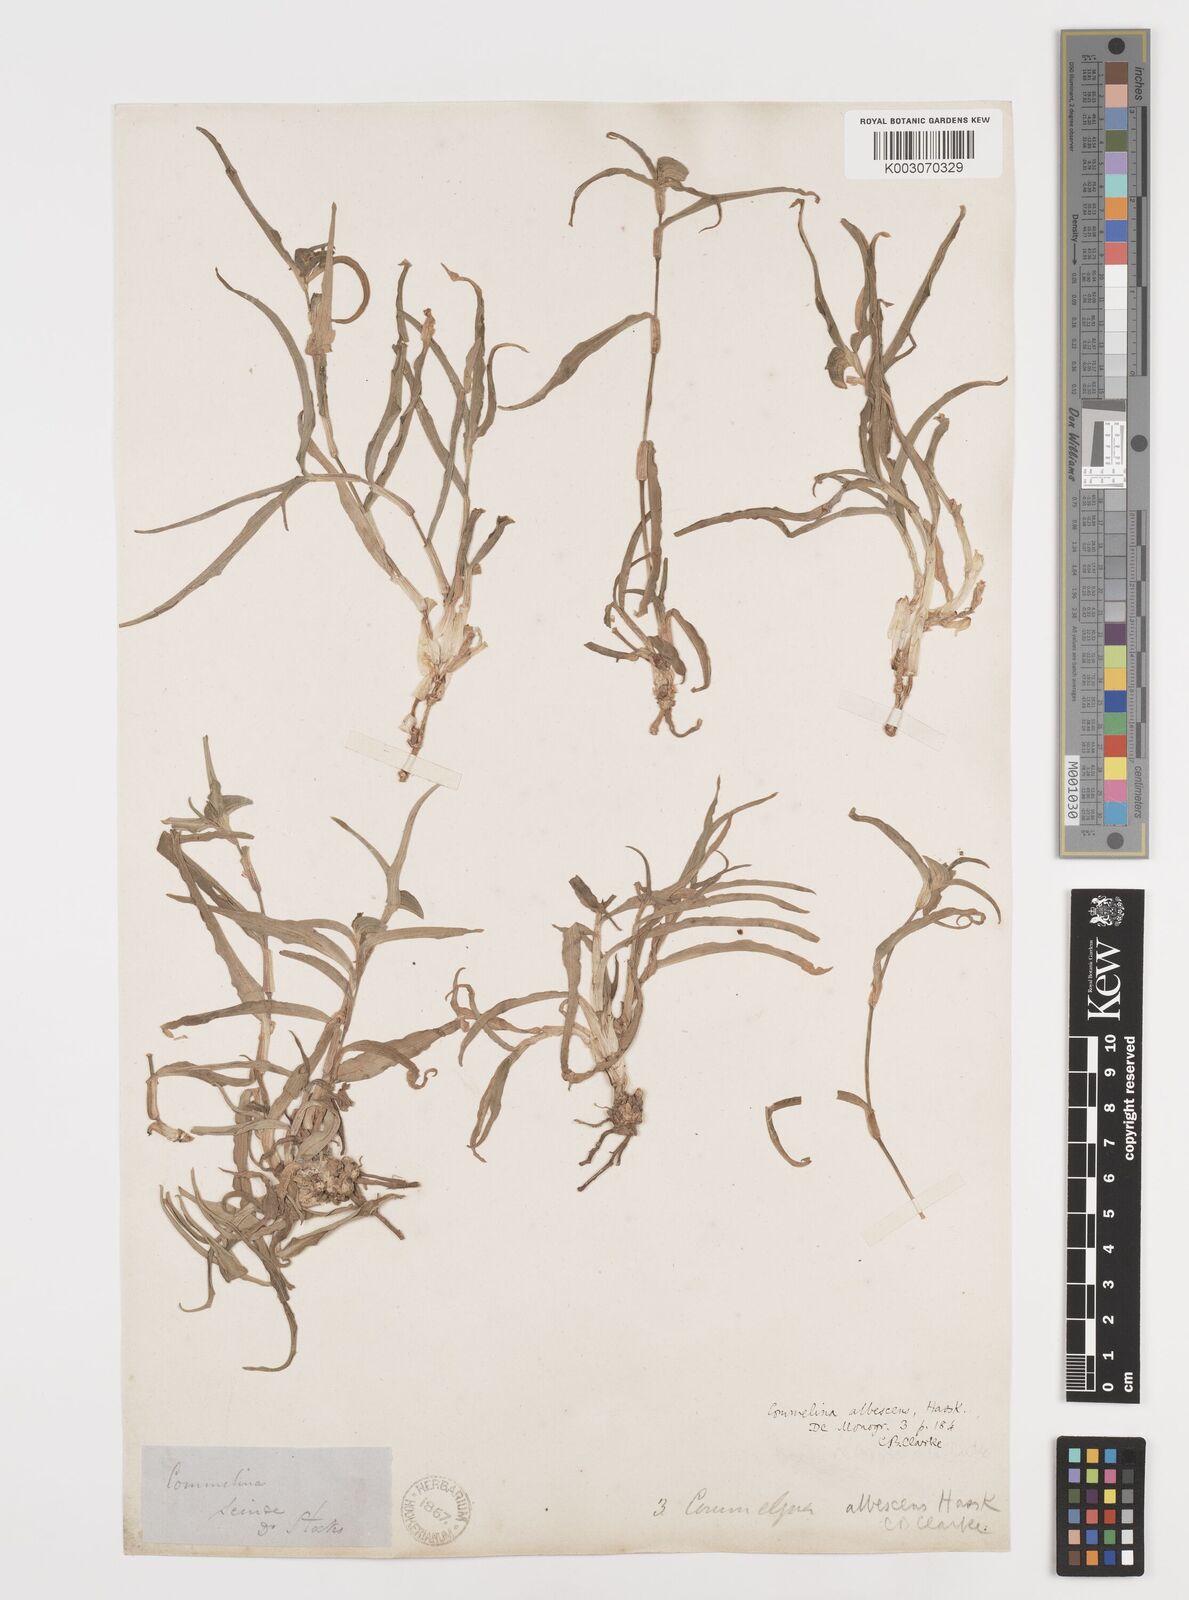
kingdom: Plantae
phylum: Tracheophyta
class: Liliopsida
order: Commelinales
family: Commelinaceae
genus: Commelina
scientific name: Commelina albescens
